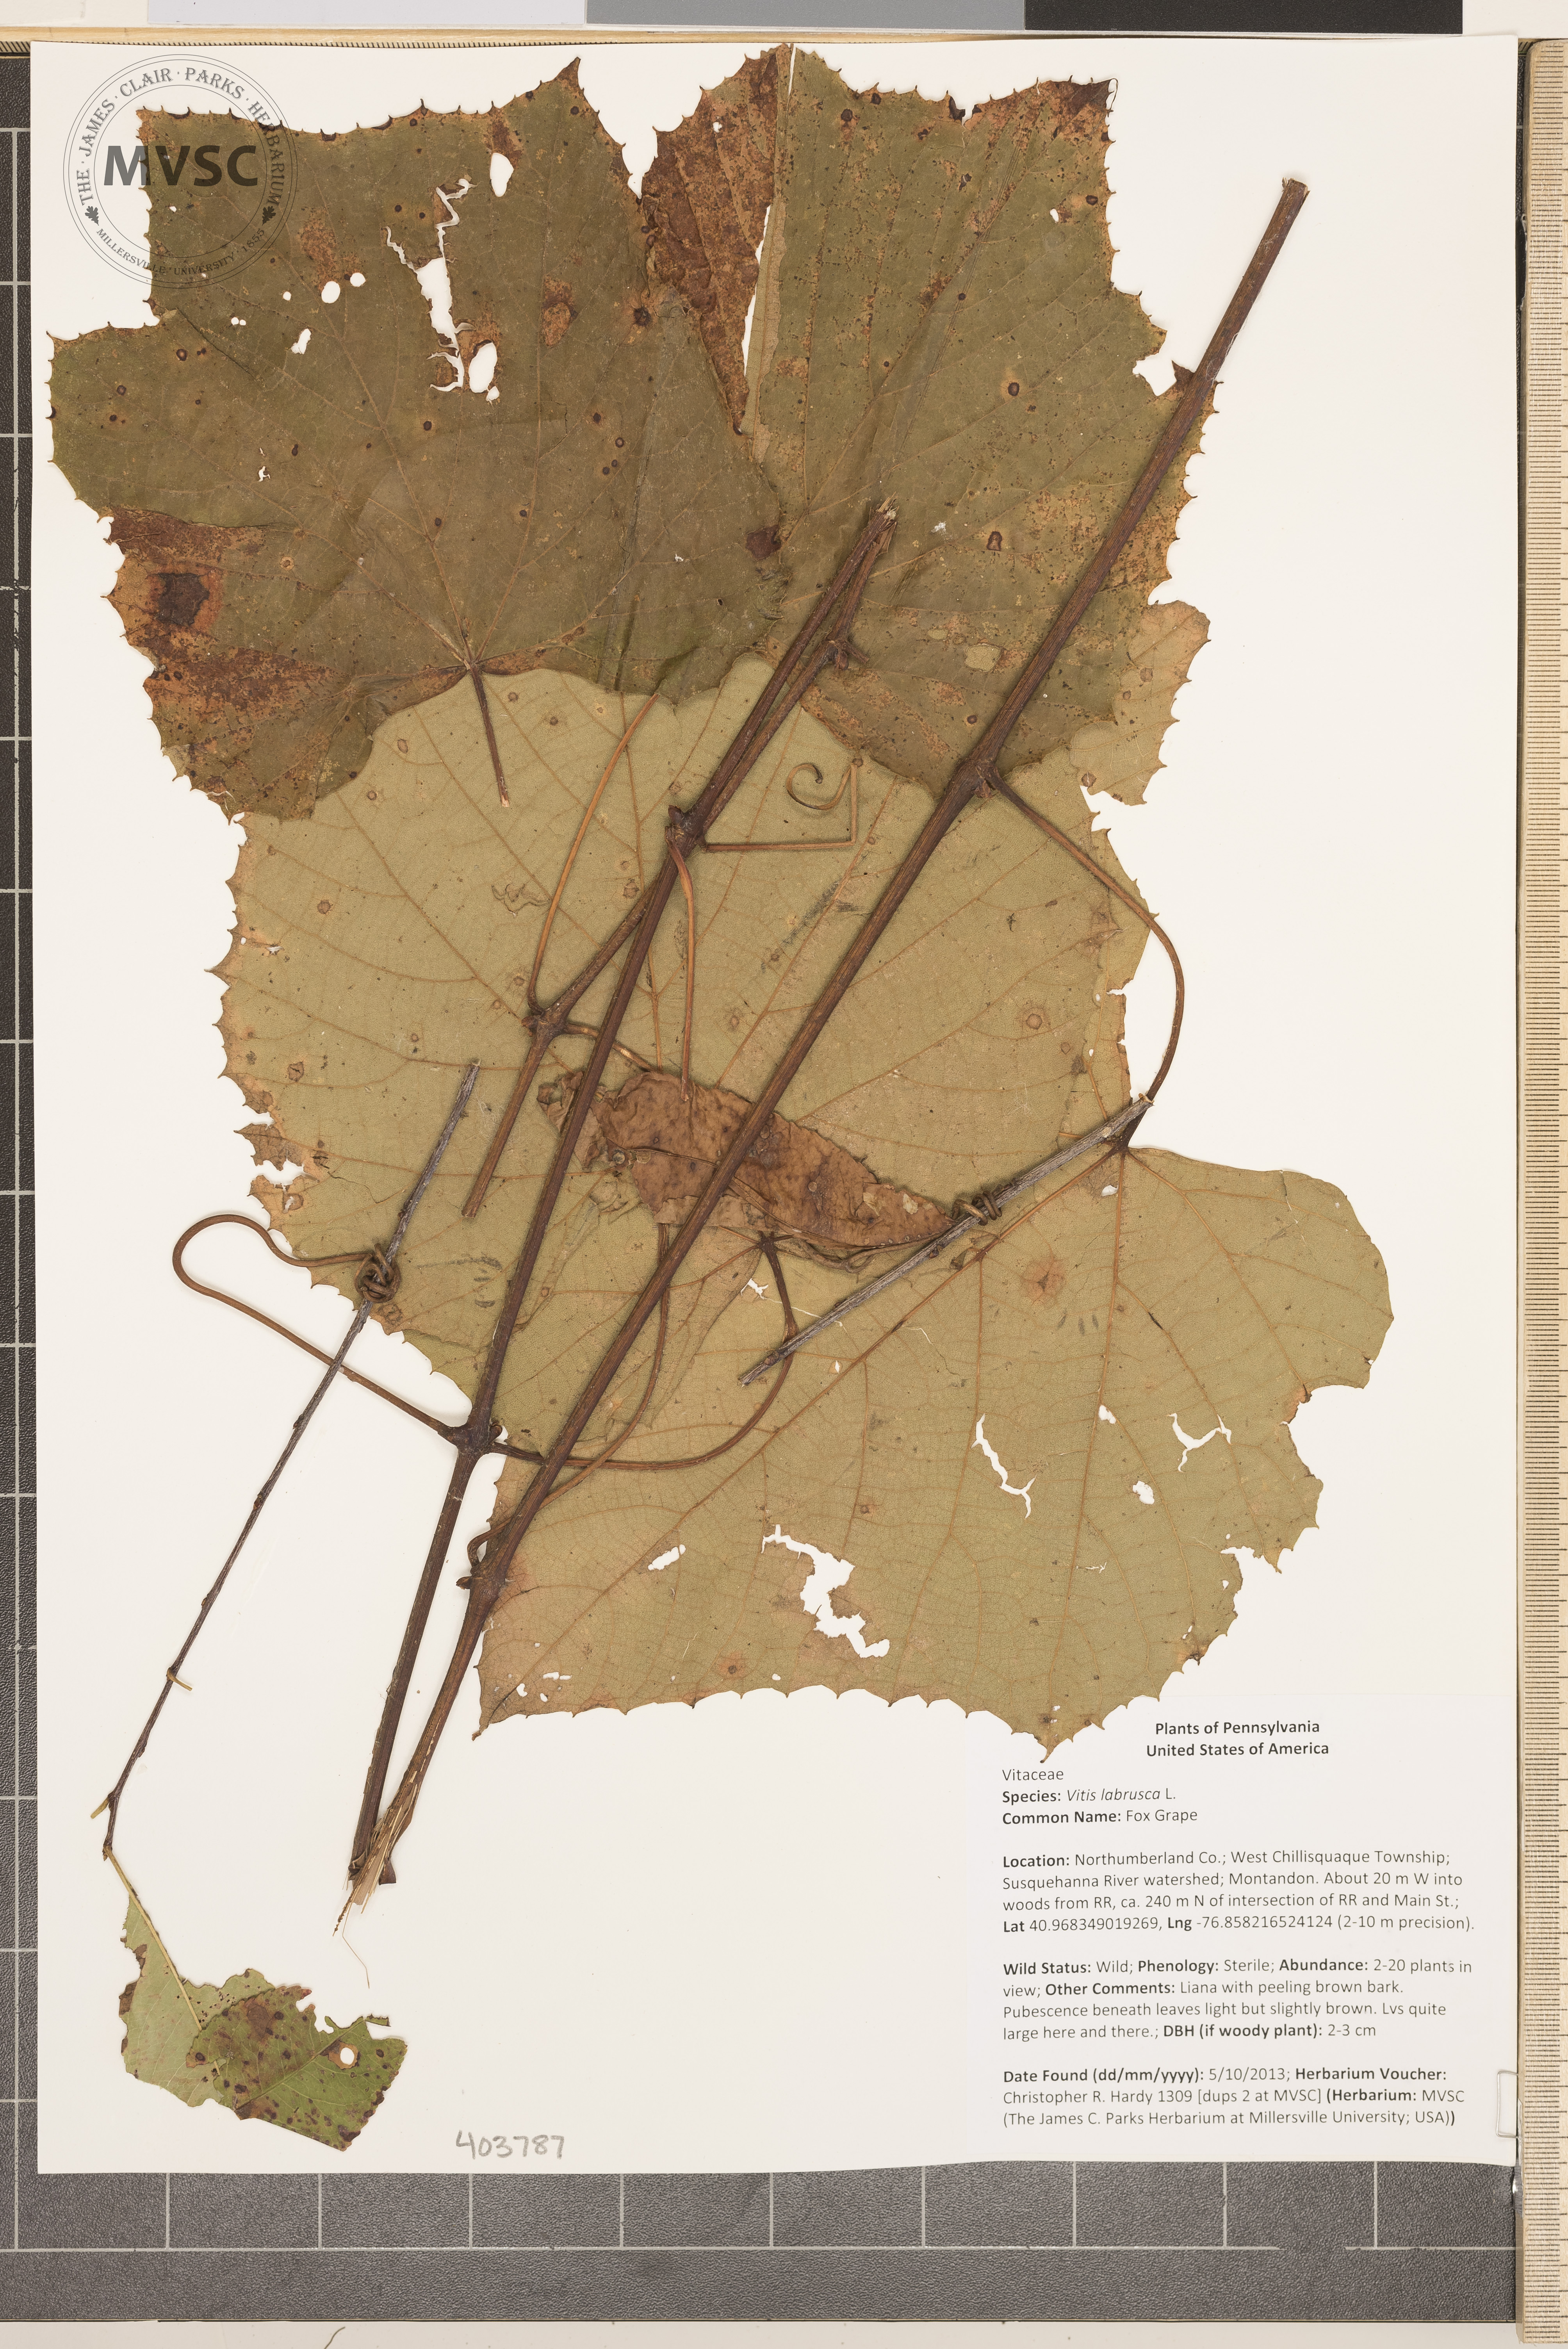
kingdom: Plantae
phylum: Tracheophyta
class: Magnoliopsida
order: Vitales
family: Vitaceae
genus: Vitis
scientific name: Vitis labrusca
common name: Fox Grape
